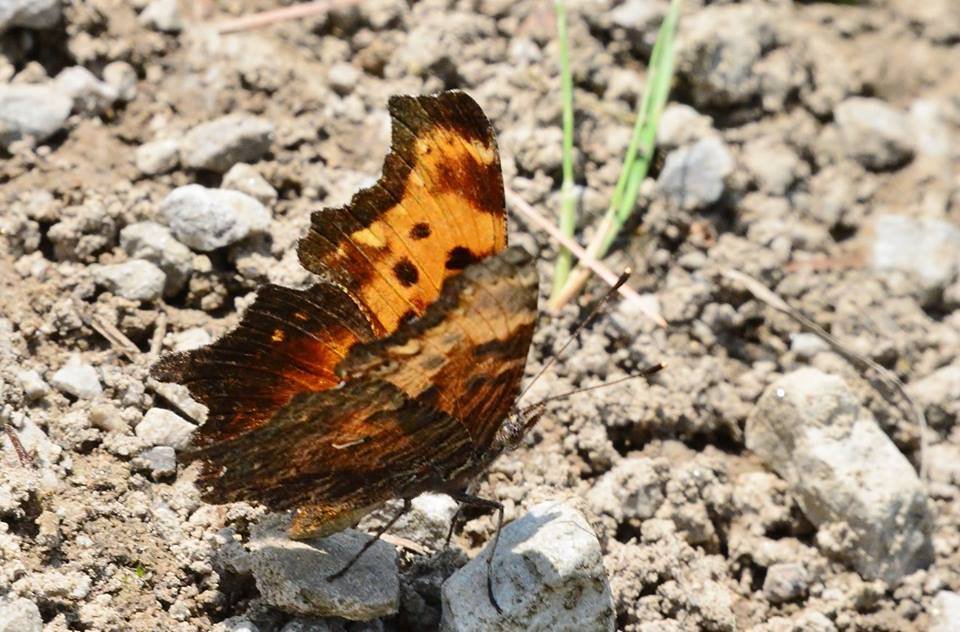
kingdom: Animalia
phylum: Arthropoda
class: Insecta
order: Lepidoptera
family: Nymphalidae
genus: Polygonia
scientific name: Polygonia progne
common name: Gray Comma
